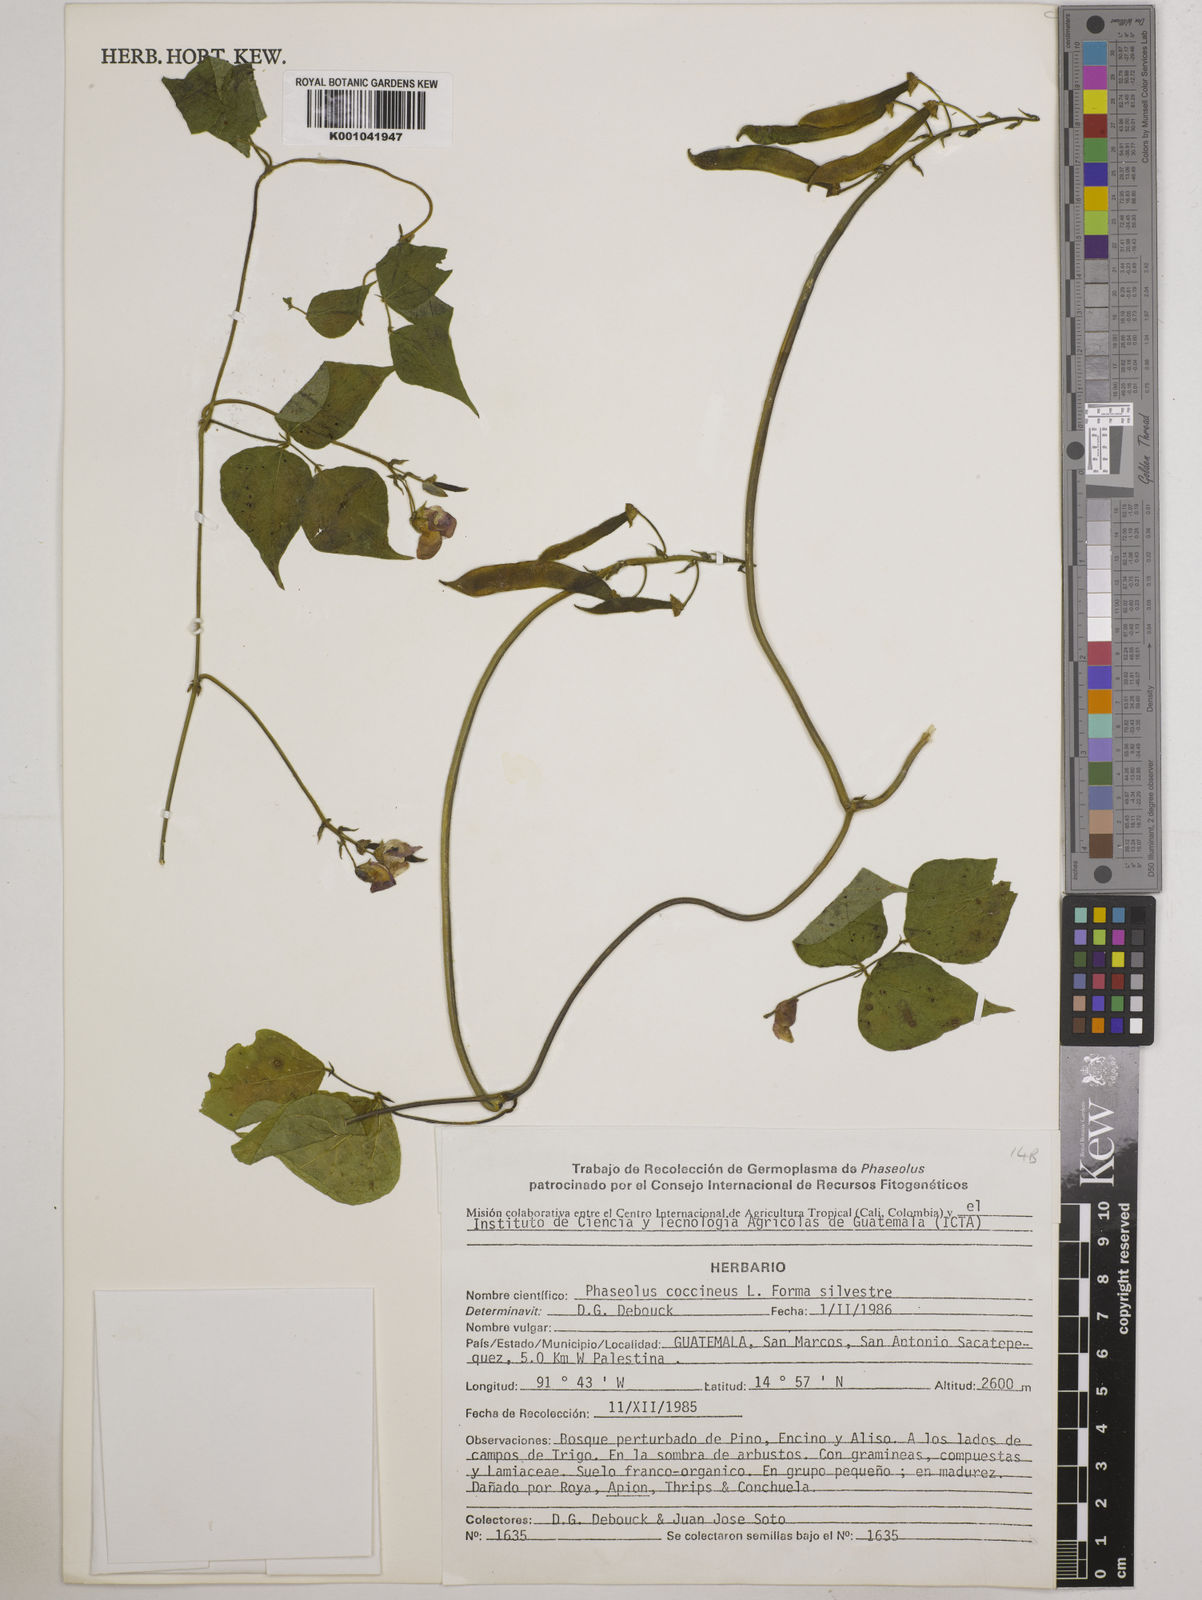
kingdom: Plantae
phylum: Tracheophyta
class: Magnoliopsida
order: Fabales
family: Fabaceae
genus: Phaseolus
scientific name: Phaseolus coccineus
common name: Runner bean
